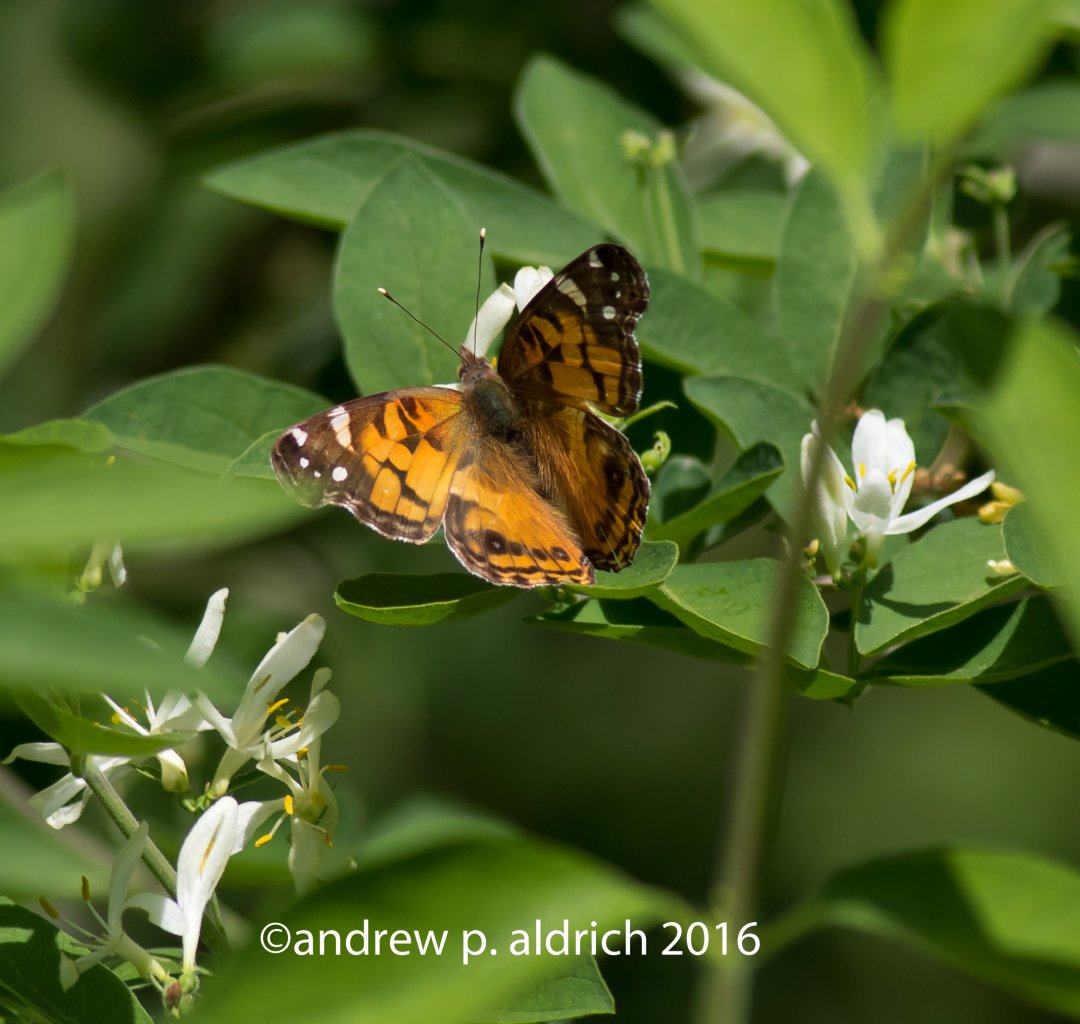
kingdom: Animalia
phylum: Arthropoda
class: Insecta
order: Lepidoptera
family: Nymphalidae
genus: Vanessa
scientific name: Vanessa virginiensis
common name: American Lady
